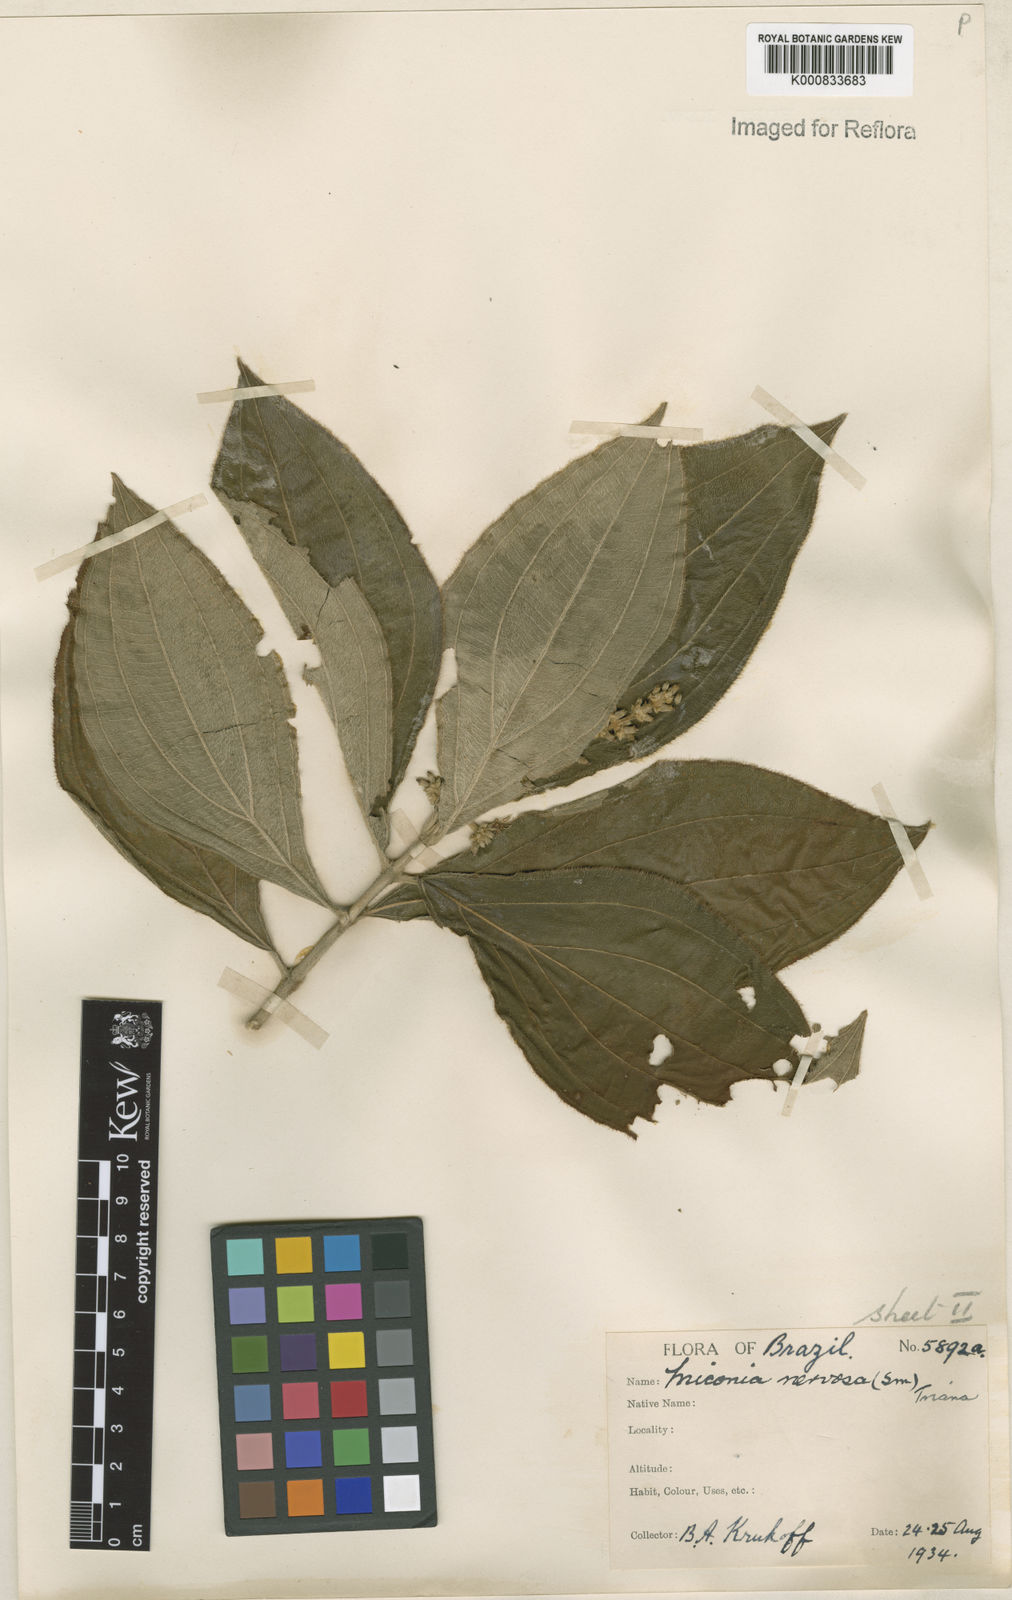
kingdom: Plantae
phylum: Tracheophyta
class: Magnoliopsida
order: Myrtales
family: Melastomataceae
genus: Miconia
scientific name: Miconia nervosa
